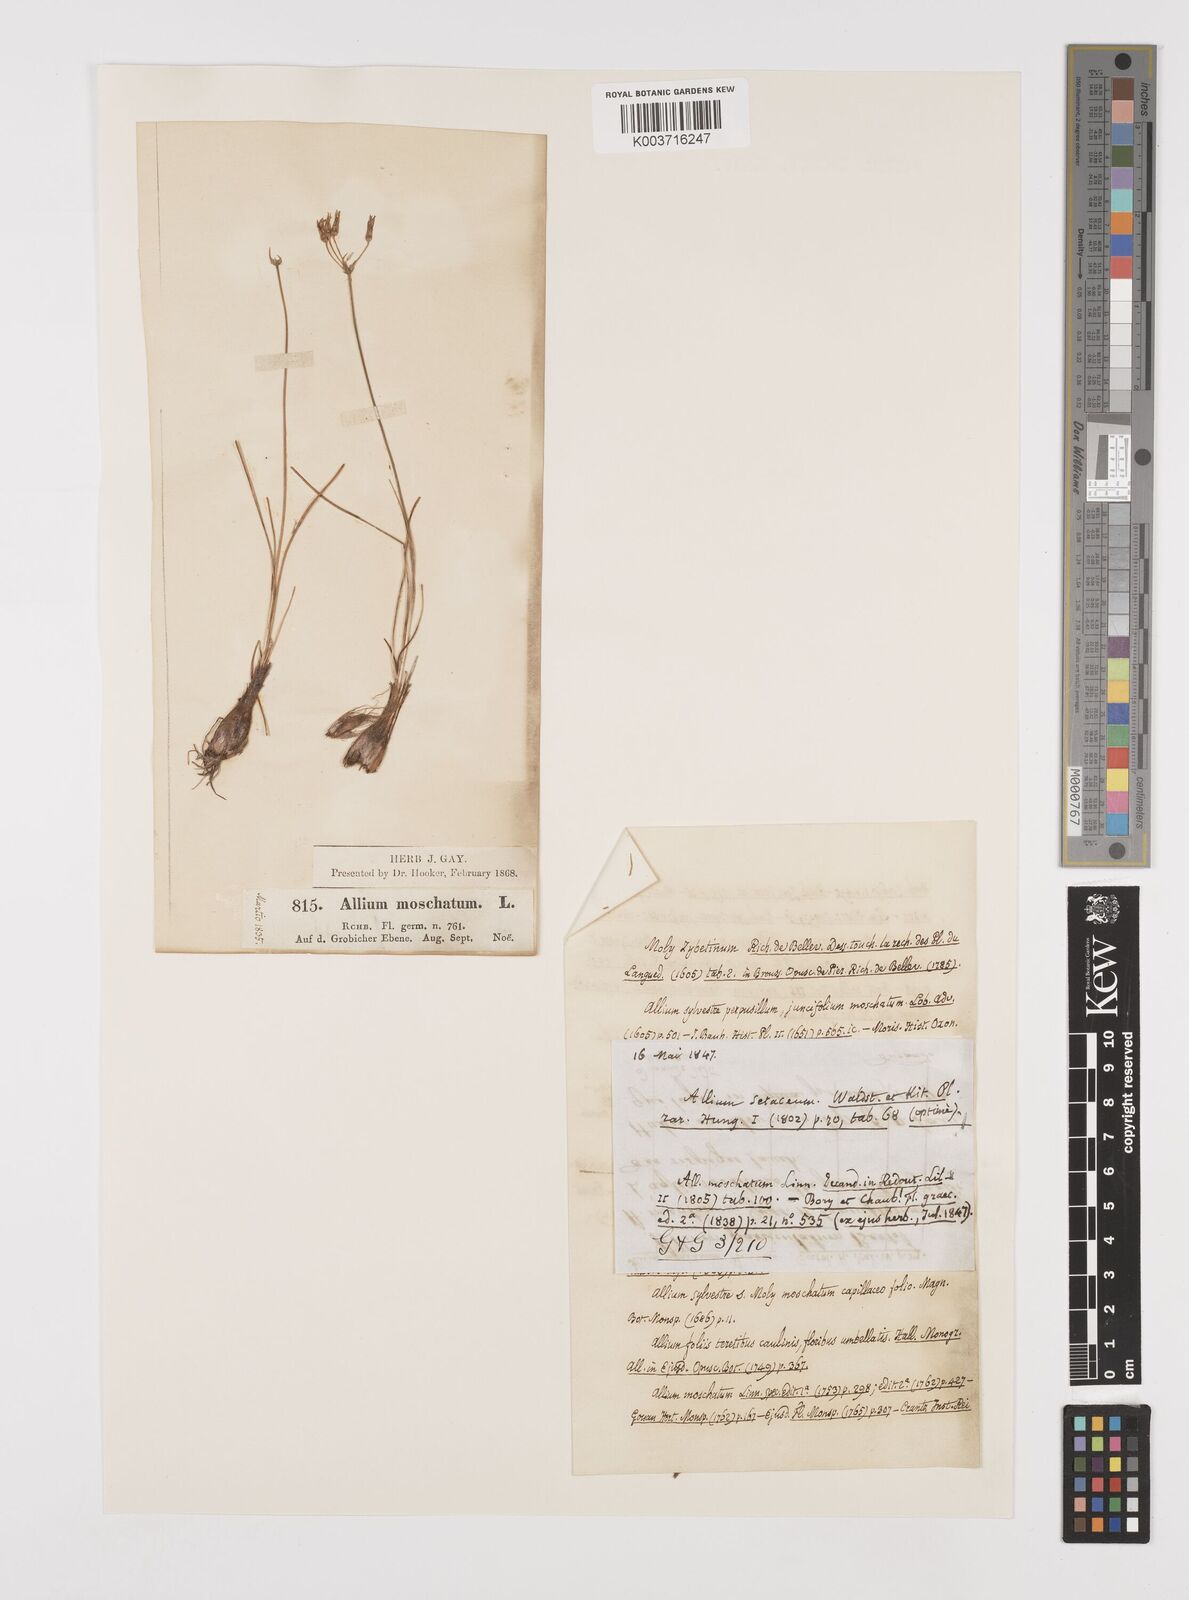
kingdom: Plantae
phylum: Tracheophyta
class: Liliopsida
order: Asparagales
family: Amaryllidaceae
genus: Allium
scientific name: Allium moschatum
